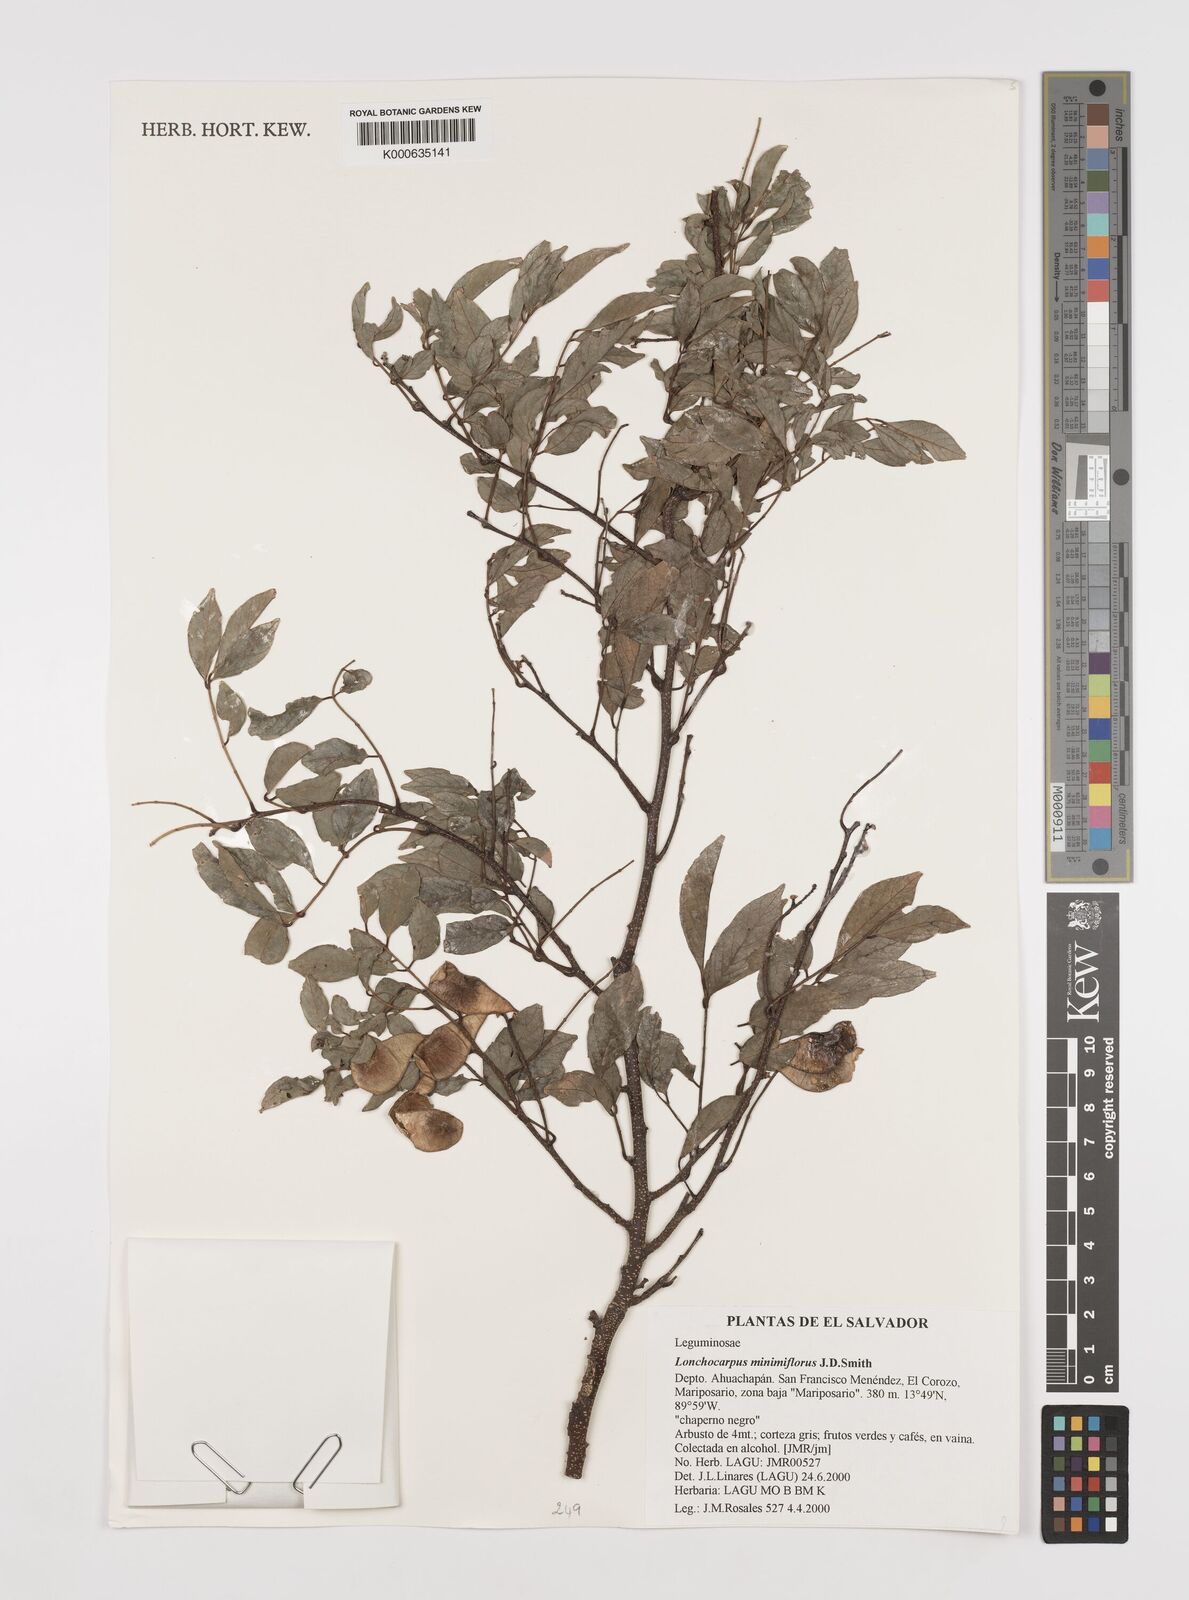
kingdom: Plantae
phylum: Tracheophyta
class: Magnoliopsida
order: Fabales
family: Fabaceae
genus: Lonchocarpus
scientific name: Lonchocarpus
